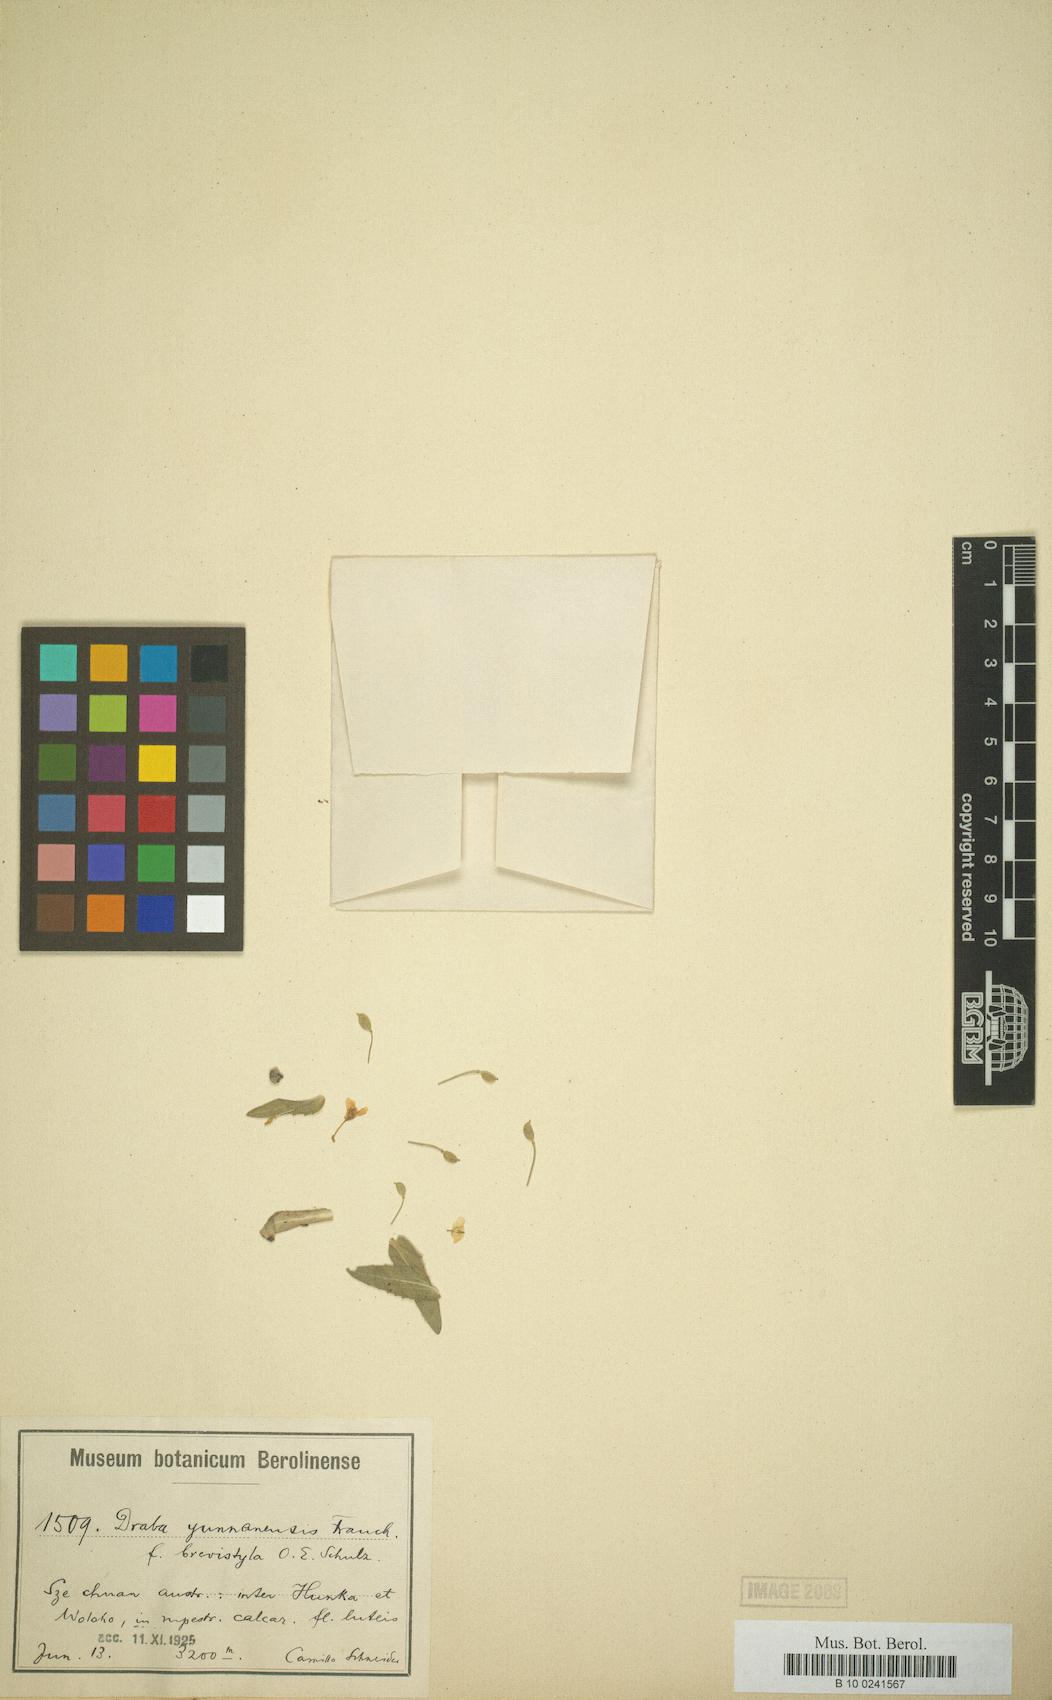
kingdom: Plantae
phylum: Tracheophyta
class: Magnoliopsida
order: Brassicales
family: Brassicaceae
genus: Draba
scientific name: Draba yunnanensis
